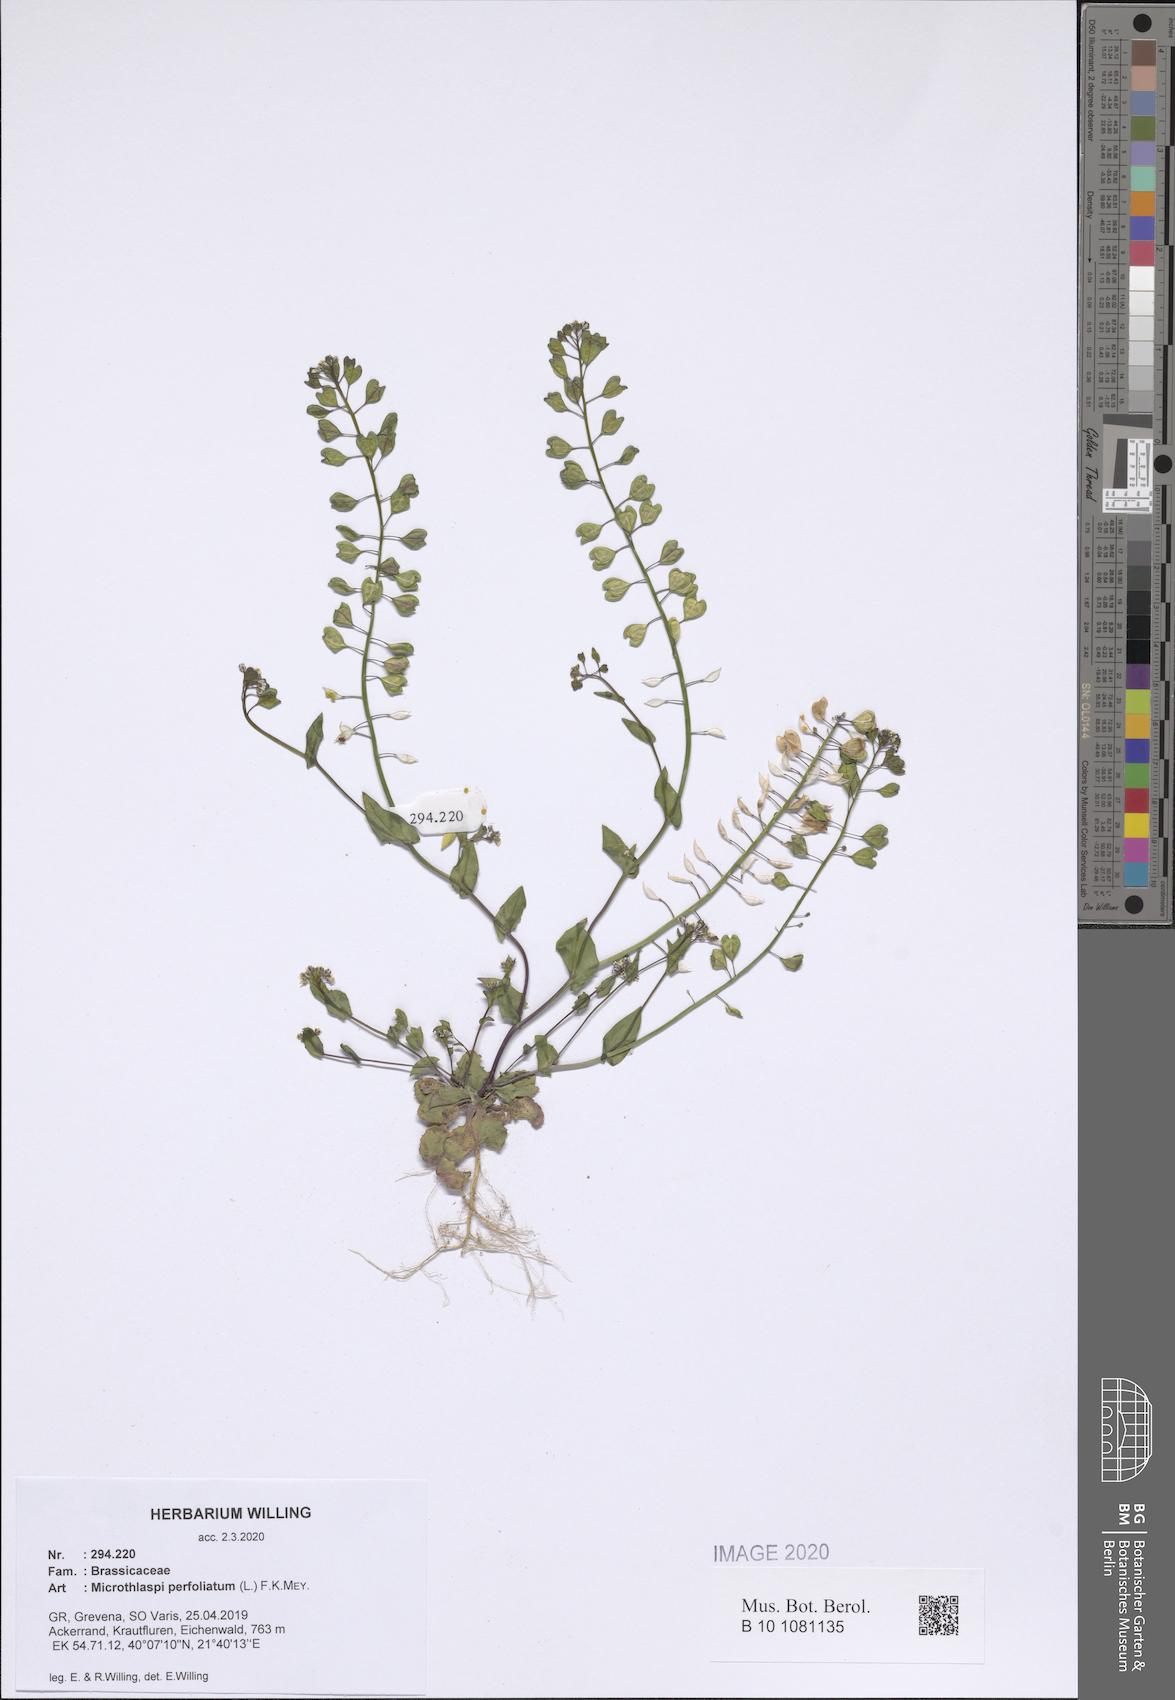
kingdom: Plantae
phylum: Tracheophyta
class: Magnoliopsida
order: Brassicales
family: Brassicaceae
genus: Noccaea
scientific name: Noccaea perfoliata
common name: Perfoliate pennycress
